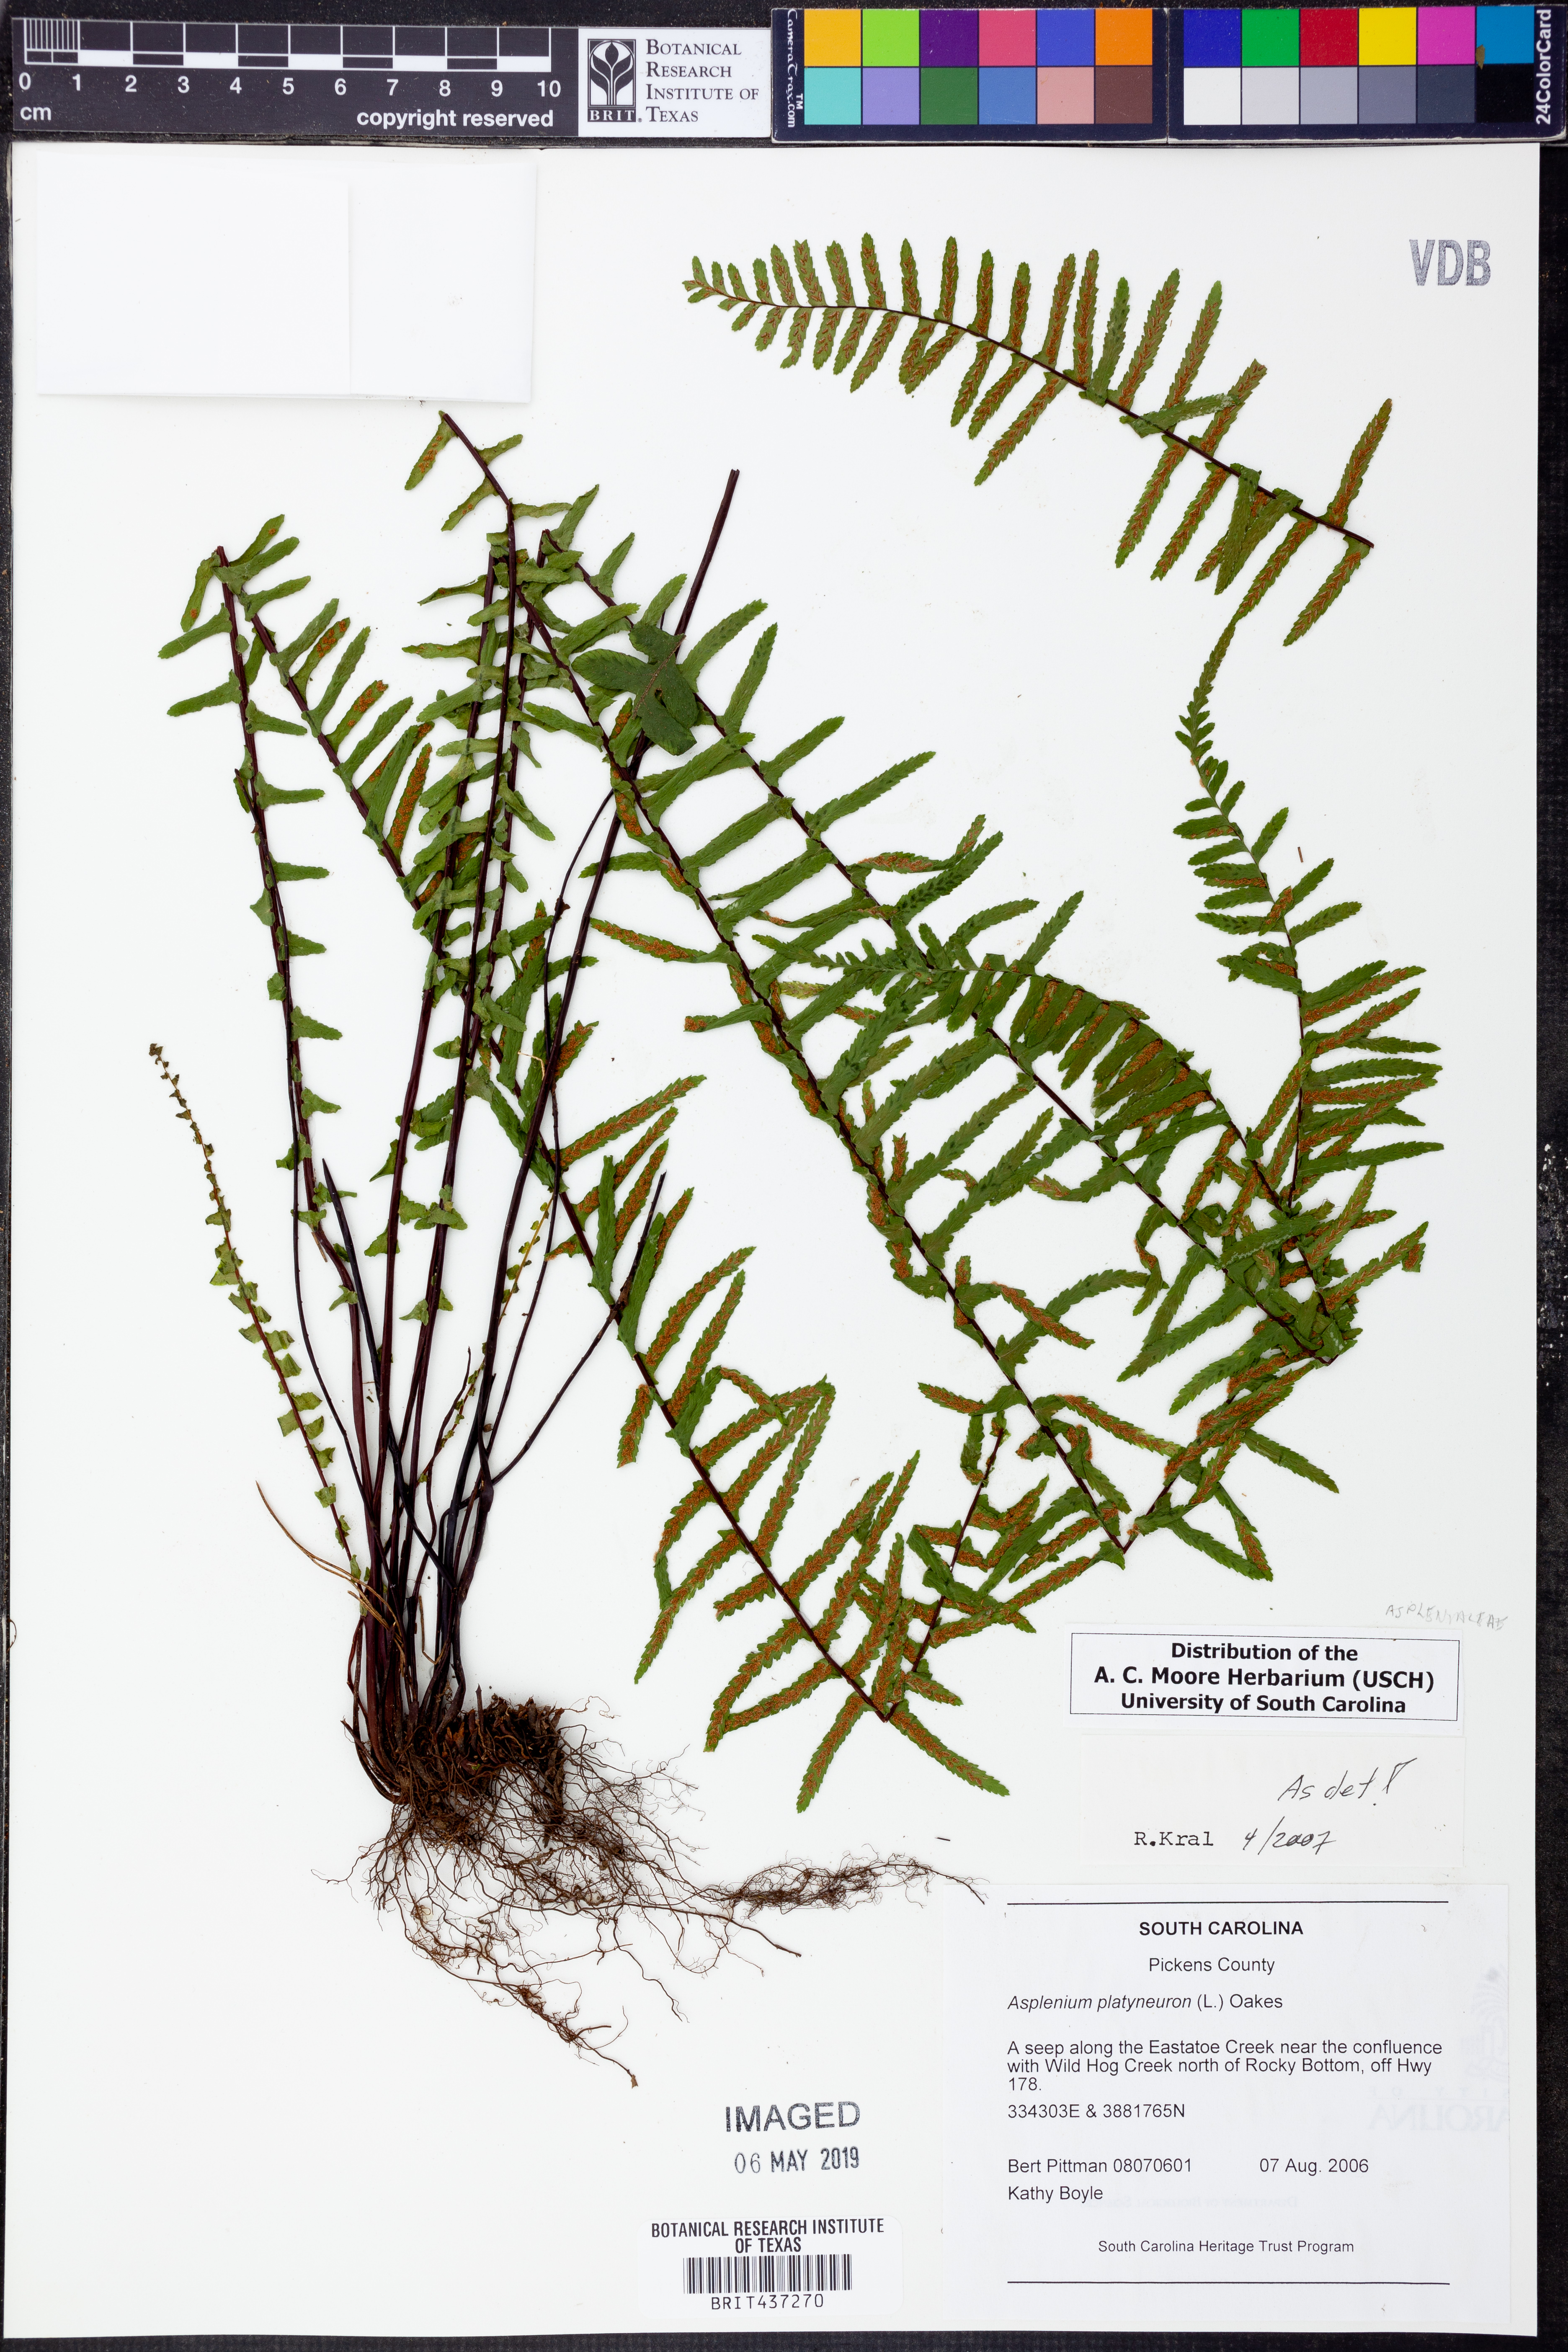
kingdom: Plantae
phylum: Tracheophyta
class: Polypodiopsida
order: Polypodiales
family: Aspleniaceae
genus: Asplenium
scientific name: Asplenium platyneuron
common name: Ebony spleenwort
